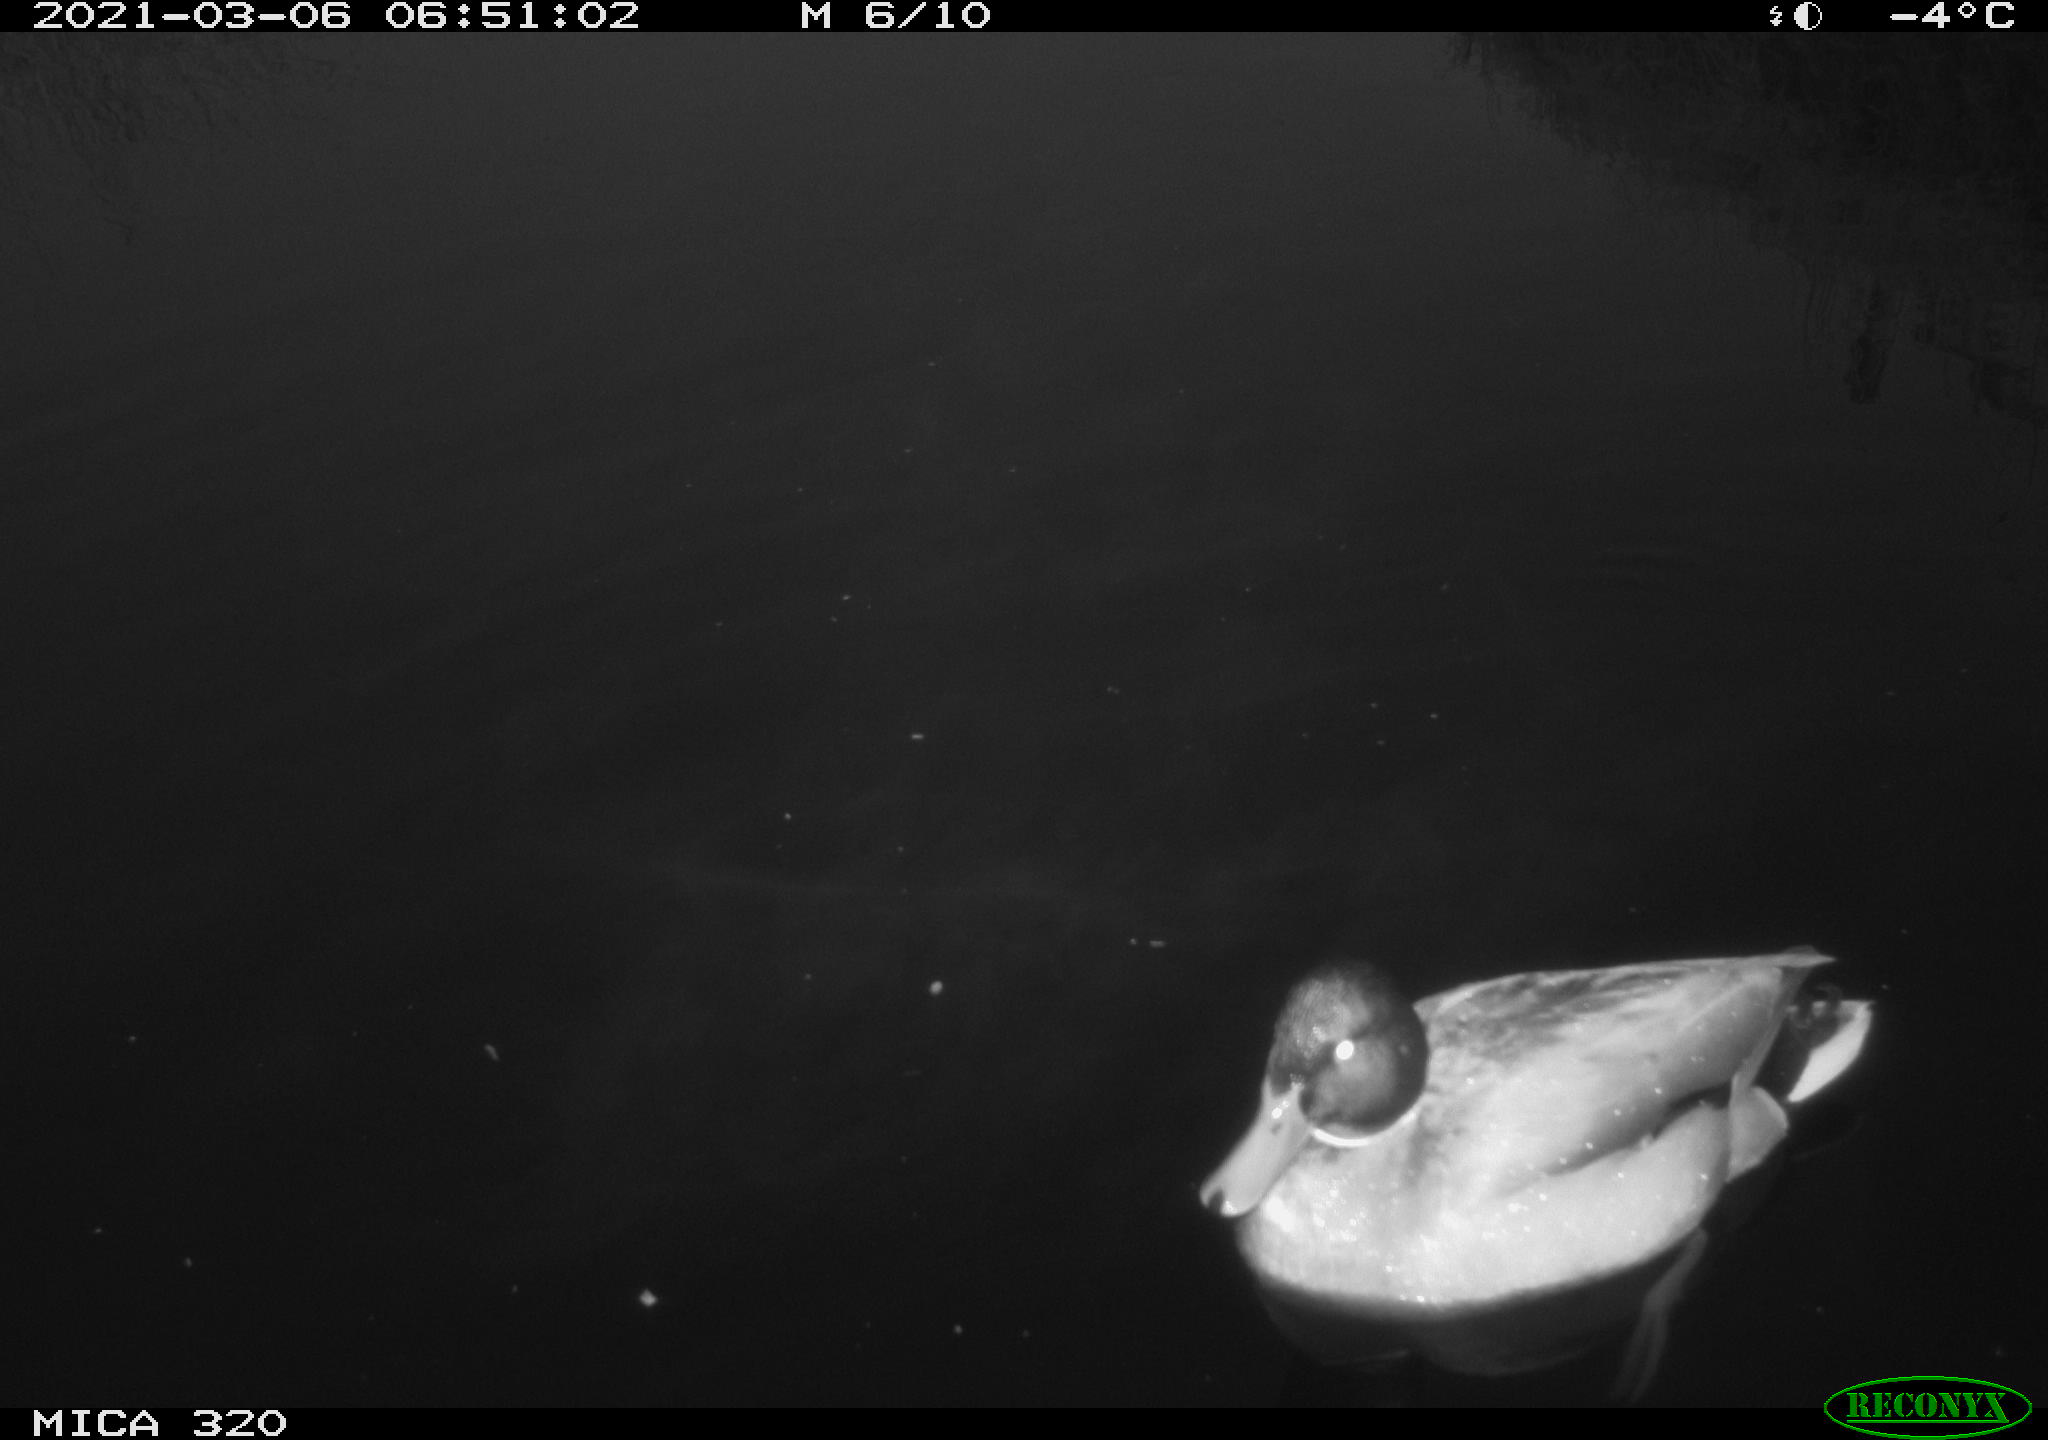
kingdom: Animalia
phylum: Chordata
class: Aves
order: Gruiformes
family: Rallidae
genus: Gallinula
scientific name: Gallinula chloropus
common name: Common moorhen
